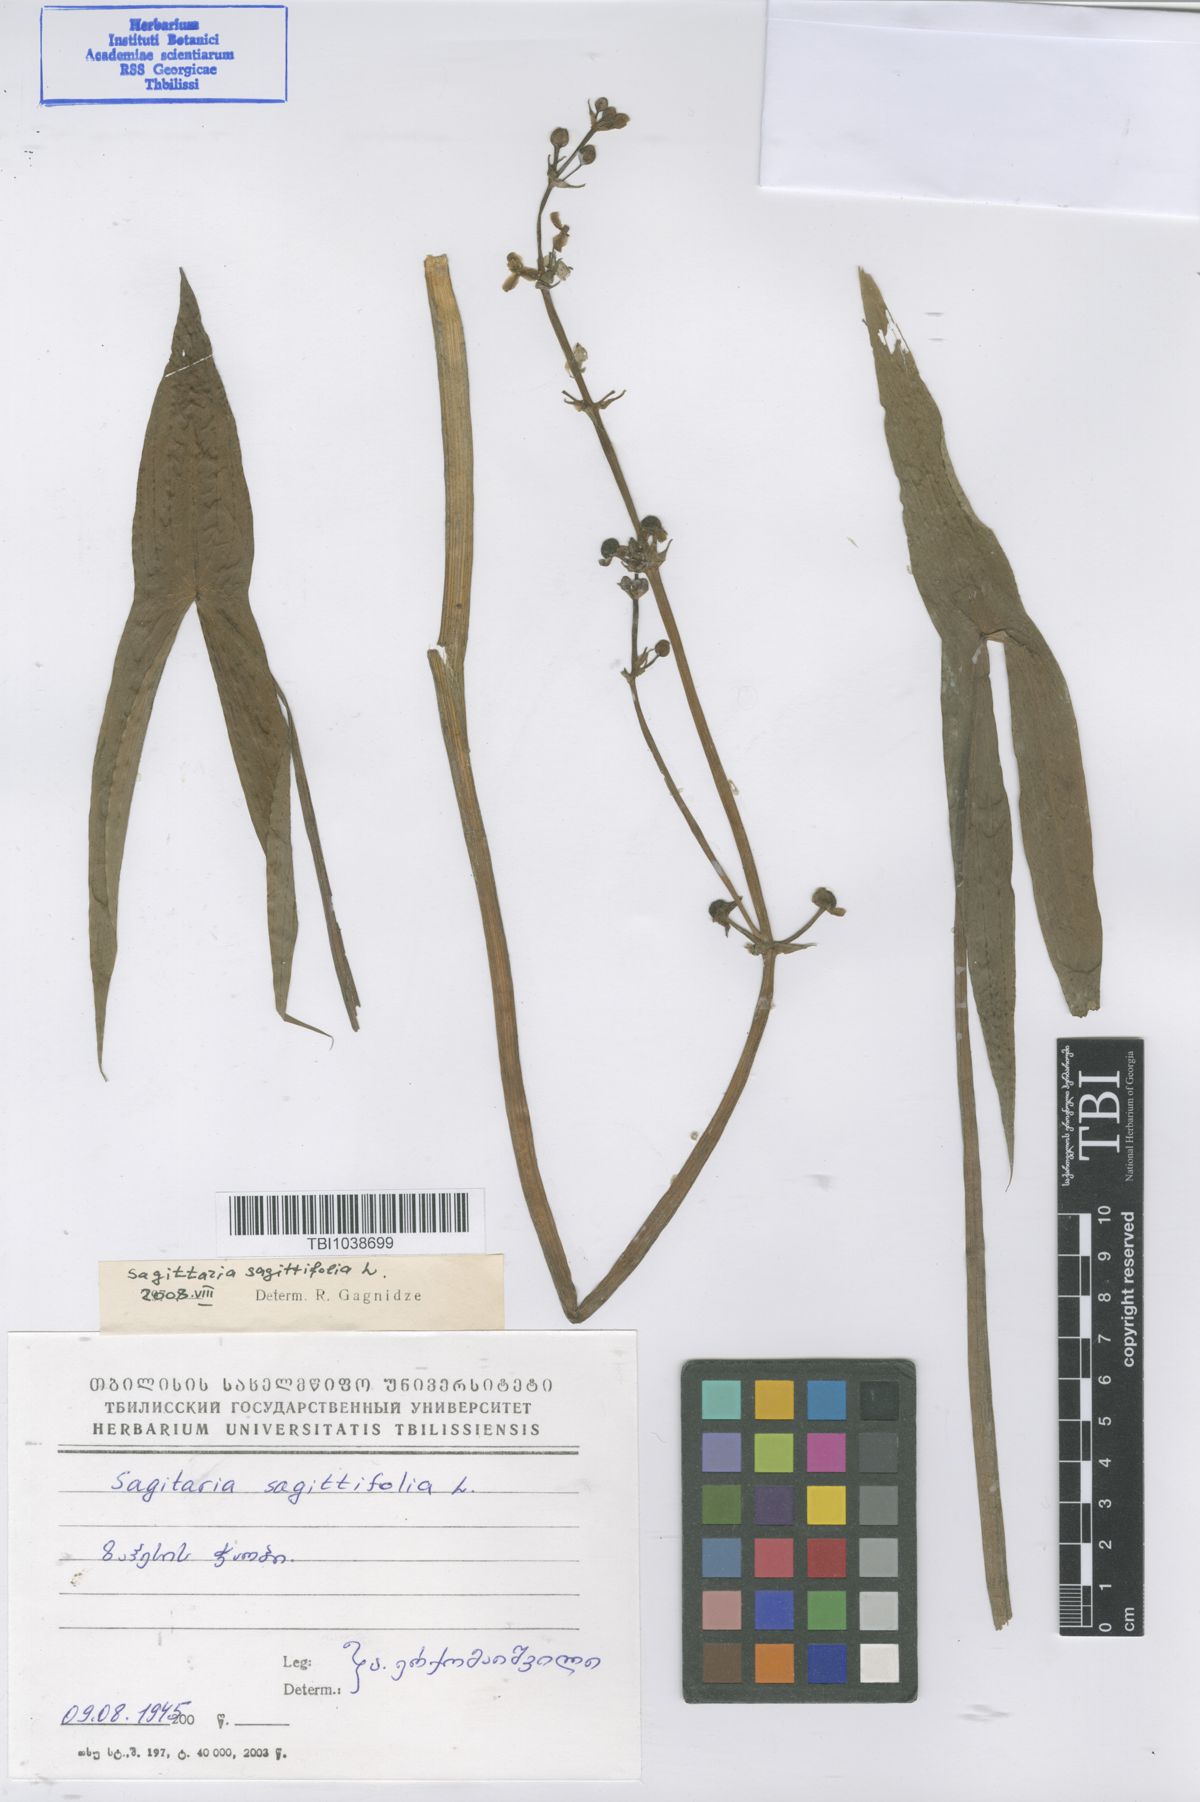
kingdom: Plantae
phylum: Tracheophyta
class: Liliopsida
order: Alismatales
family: Alismataceae
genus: Sagittaria
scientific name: Sagittaria sagittifolia
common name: Arrowhead
